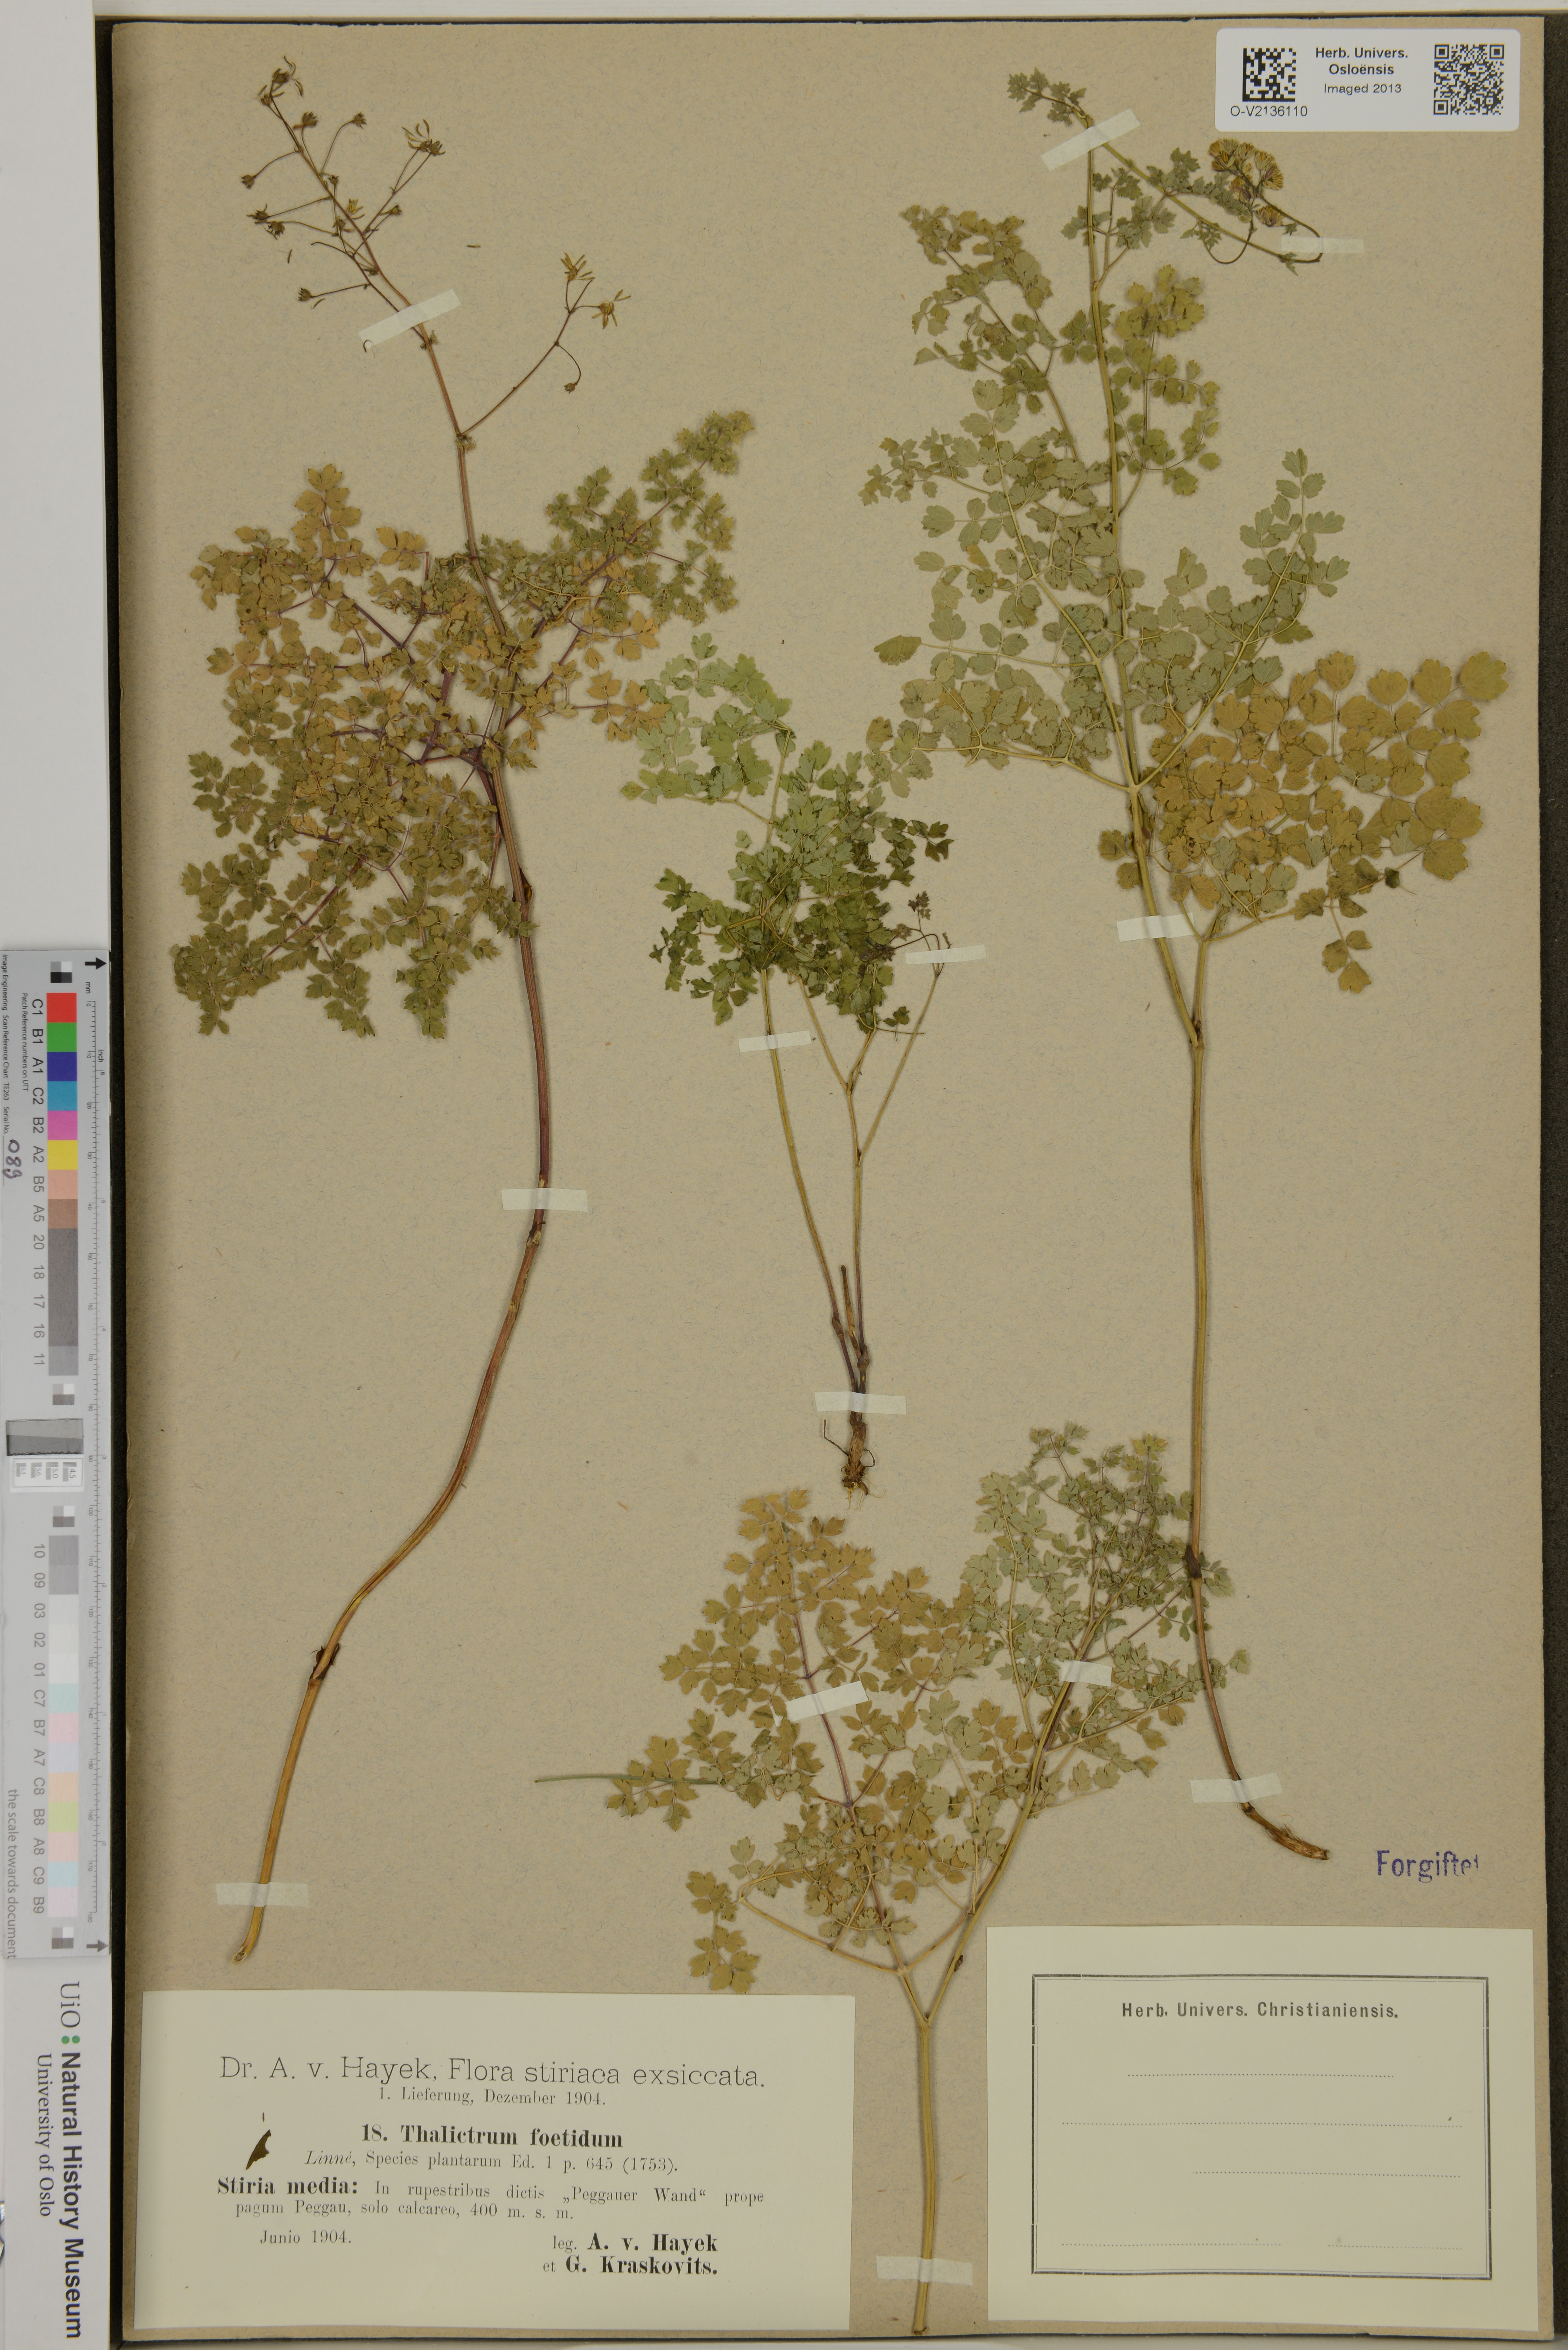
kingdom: Plantae
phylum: Tracheophyta
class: Magnoliopsida
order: Ranunculales
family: Ranunculaceae
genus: Thalictrum
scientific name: Thalictrum foetidum
